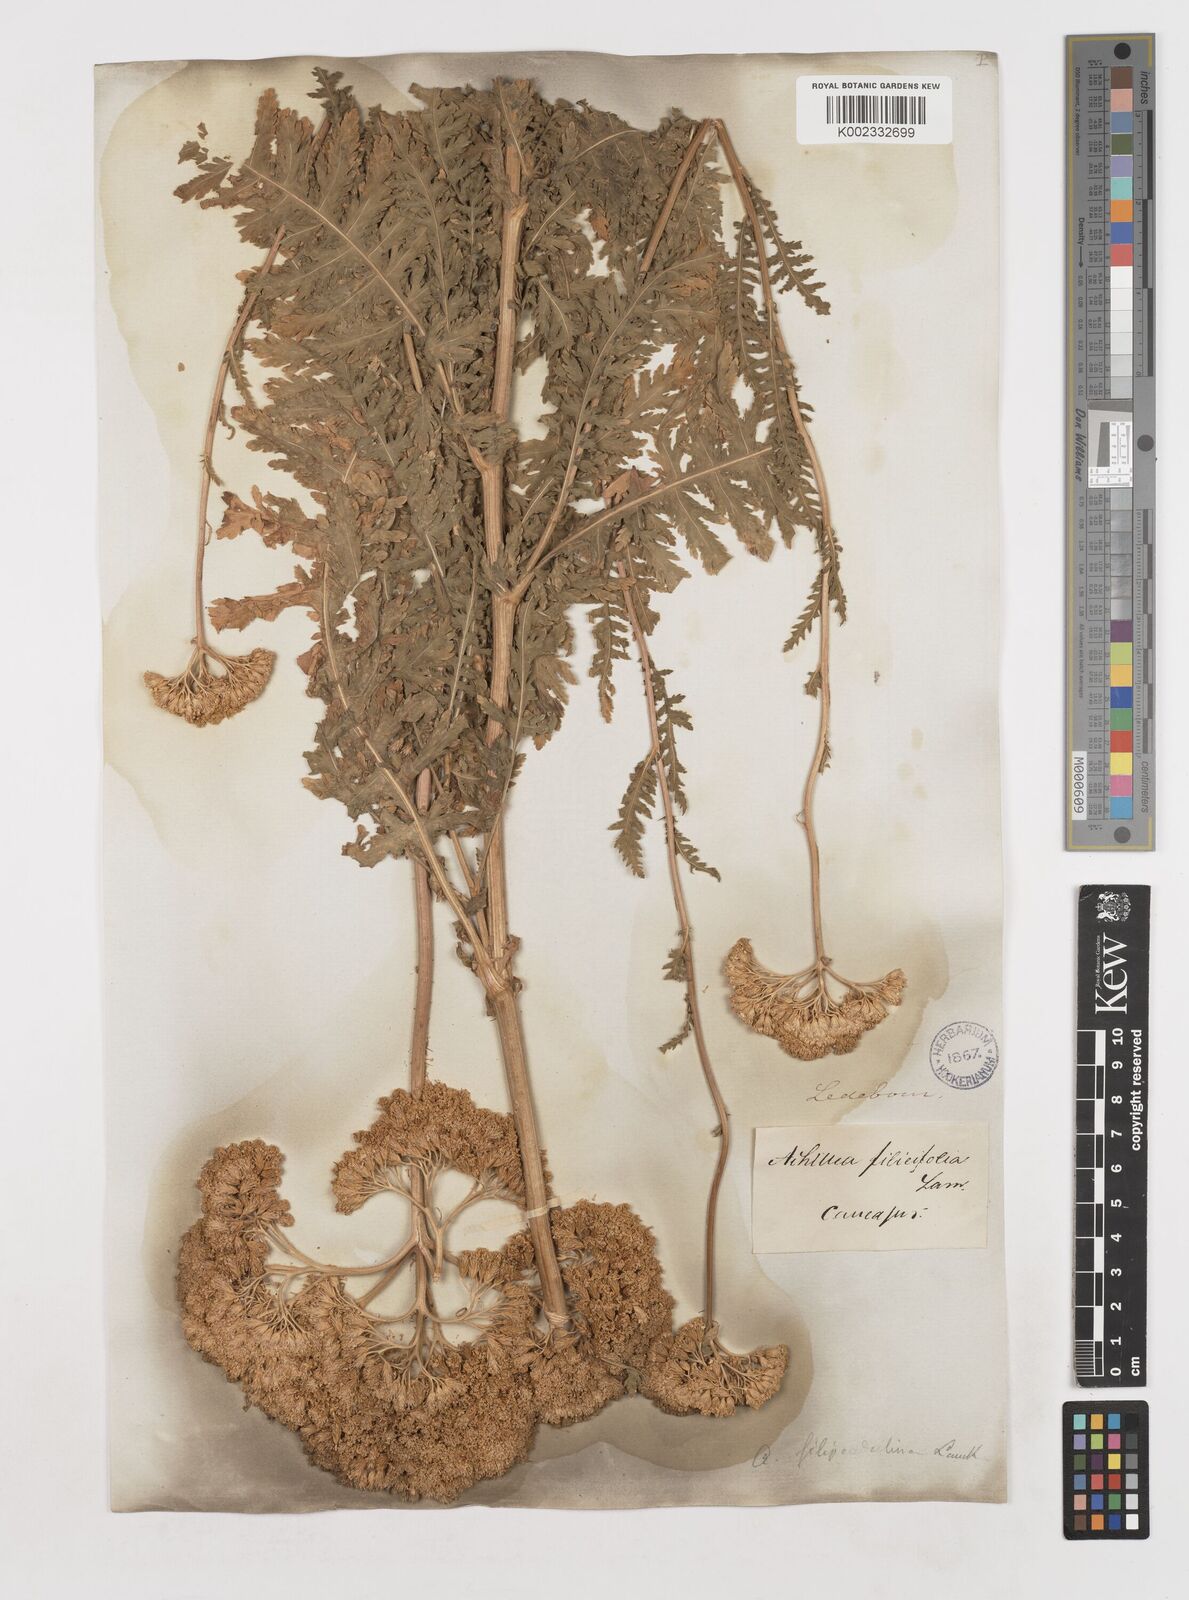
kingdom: Plantae
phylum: Tracheophyta
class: Magnoliopsida
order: Asterales
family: Asteraceae
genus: Achillea
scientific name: Achillea filipendulina
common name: Fernleaf yarrow
